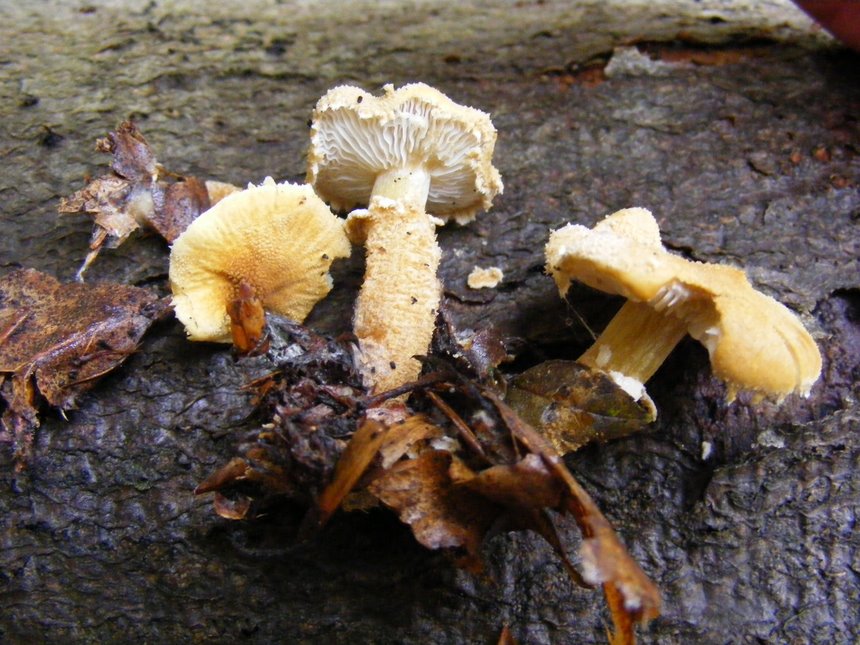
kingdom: Fungi
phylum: Basidiomycota
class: Agaricomycetes
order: Agaricales
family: Tricholomataceae
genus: Cystoderma
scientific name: Cystoderma amianthinum
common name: okkergul grynhat
